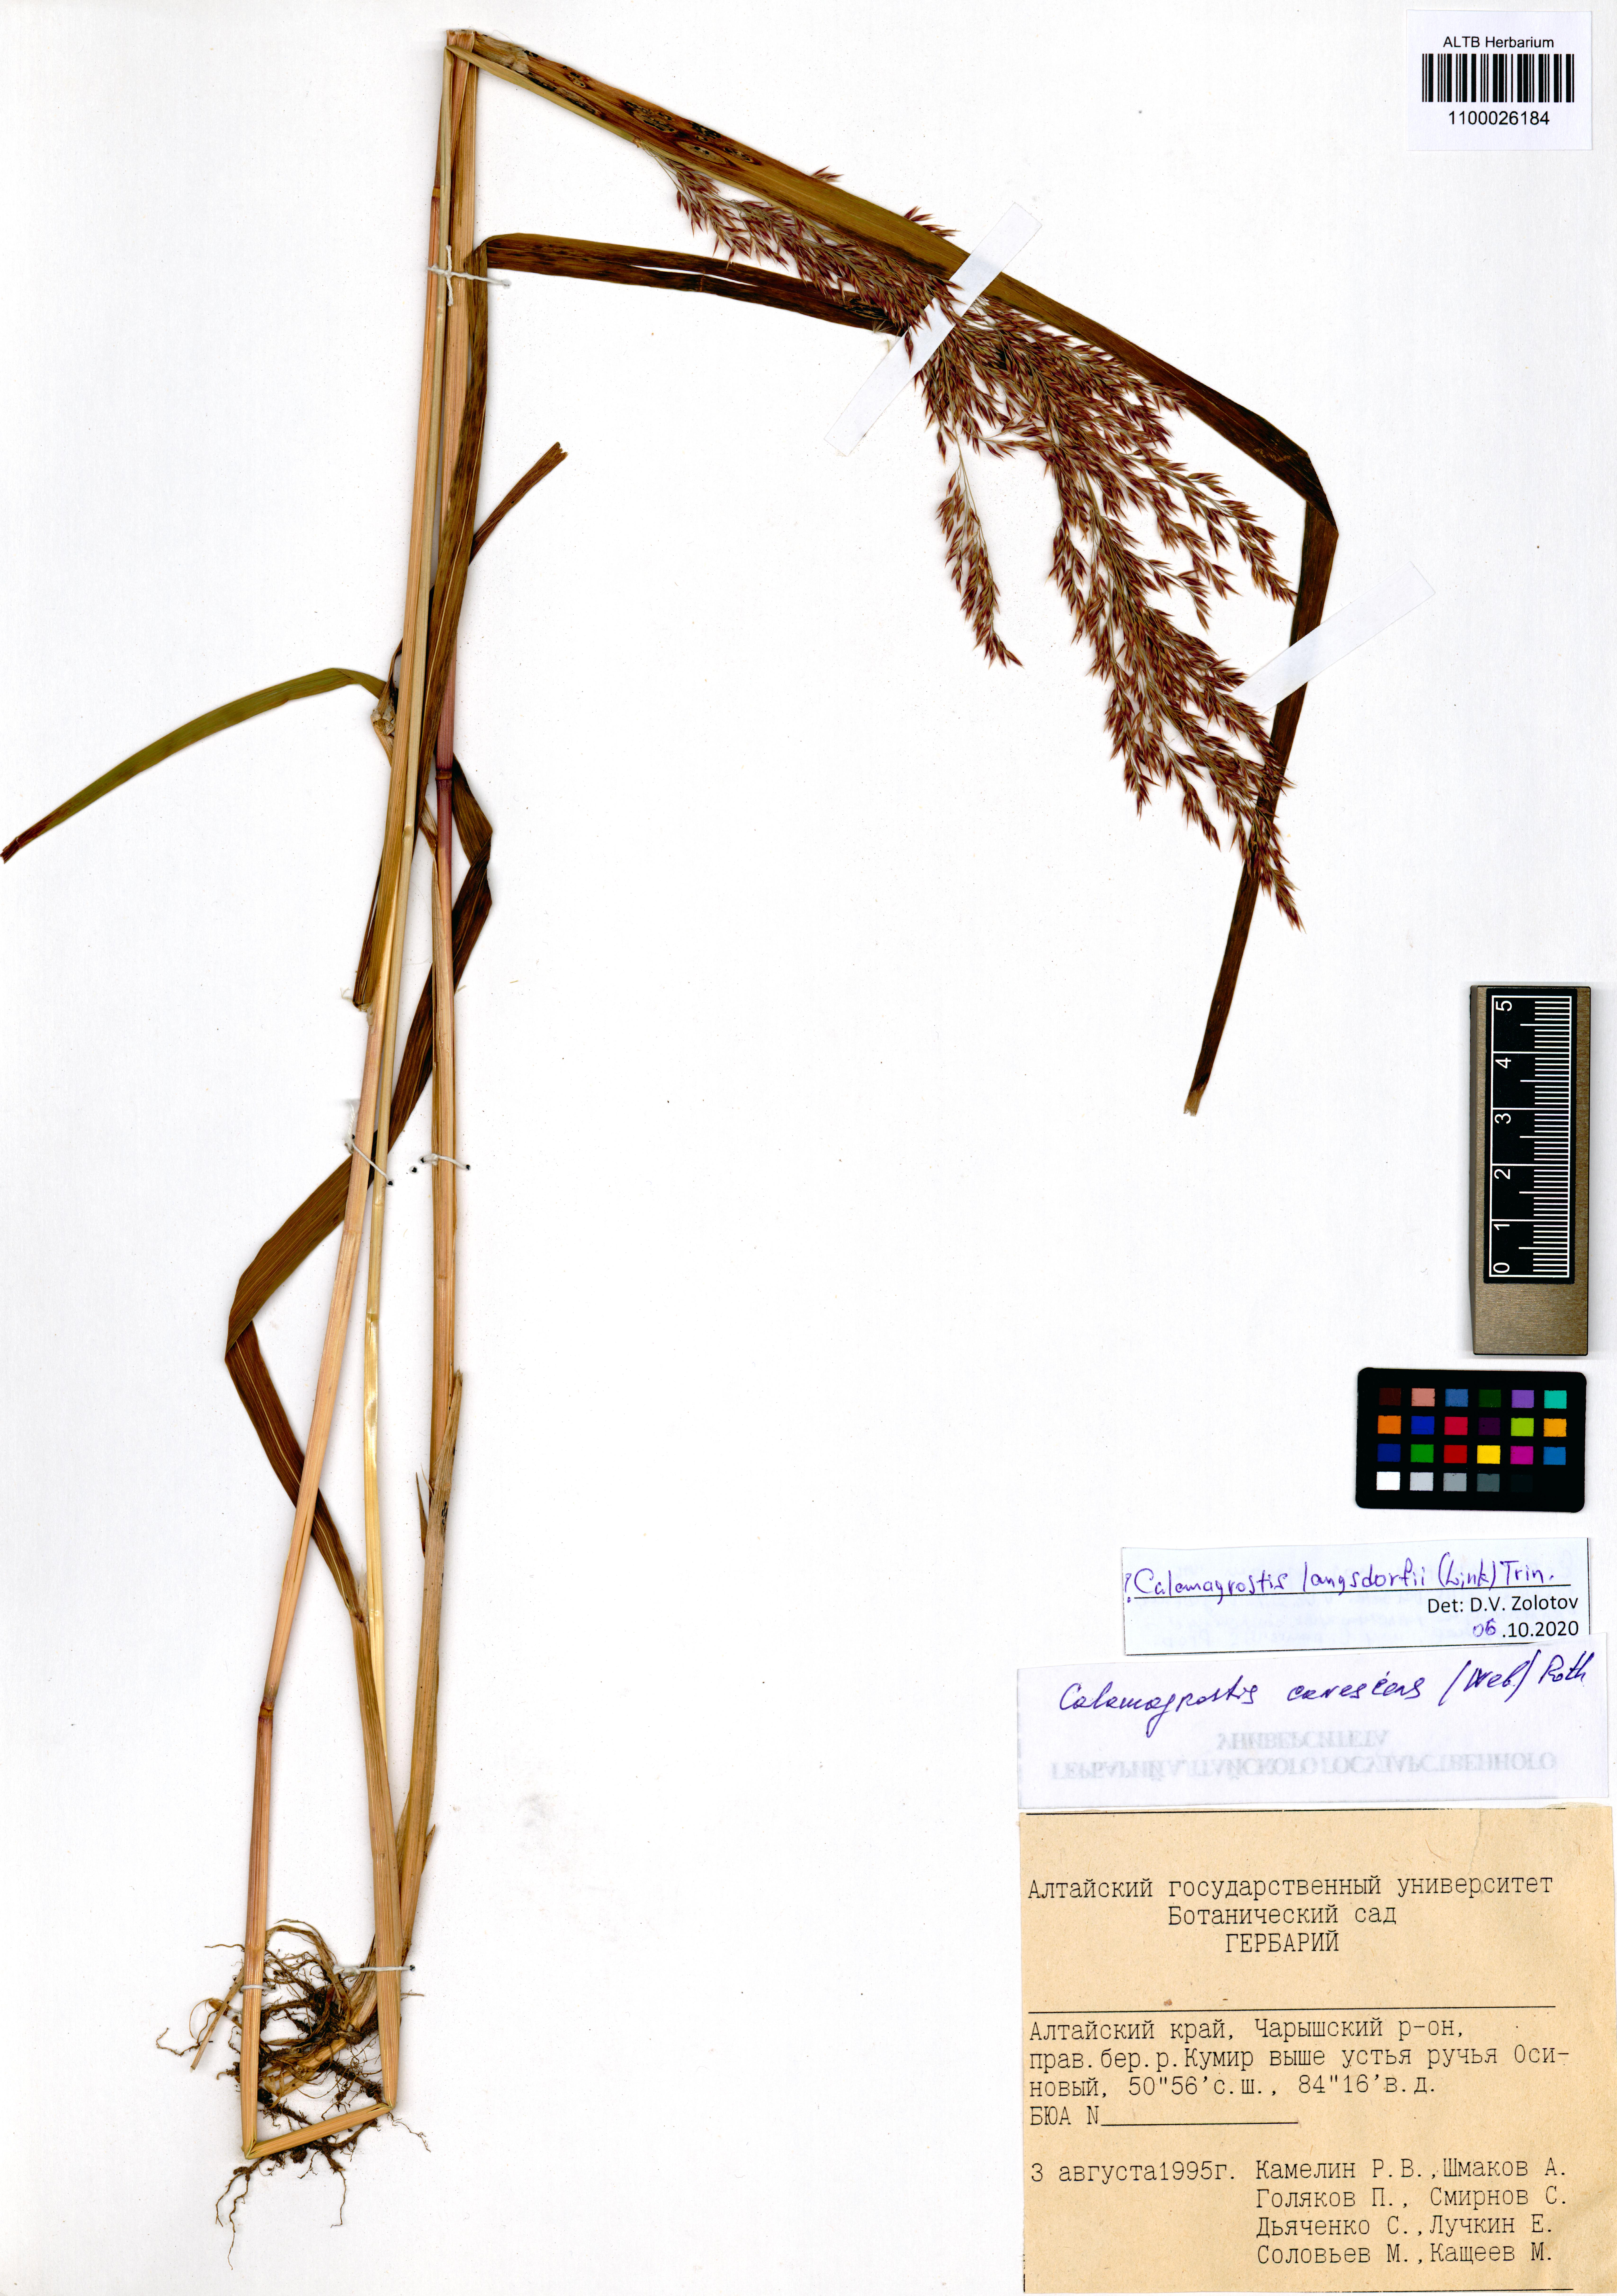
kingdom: Plantae
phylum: Tracheophyta
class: Liliopsida
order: Poales
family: Poaceae
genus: Calamagrostis
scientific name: Calamagrostis purpurea
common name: Scandinavian small-reed
